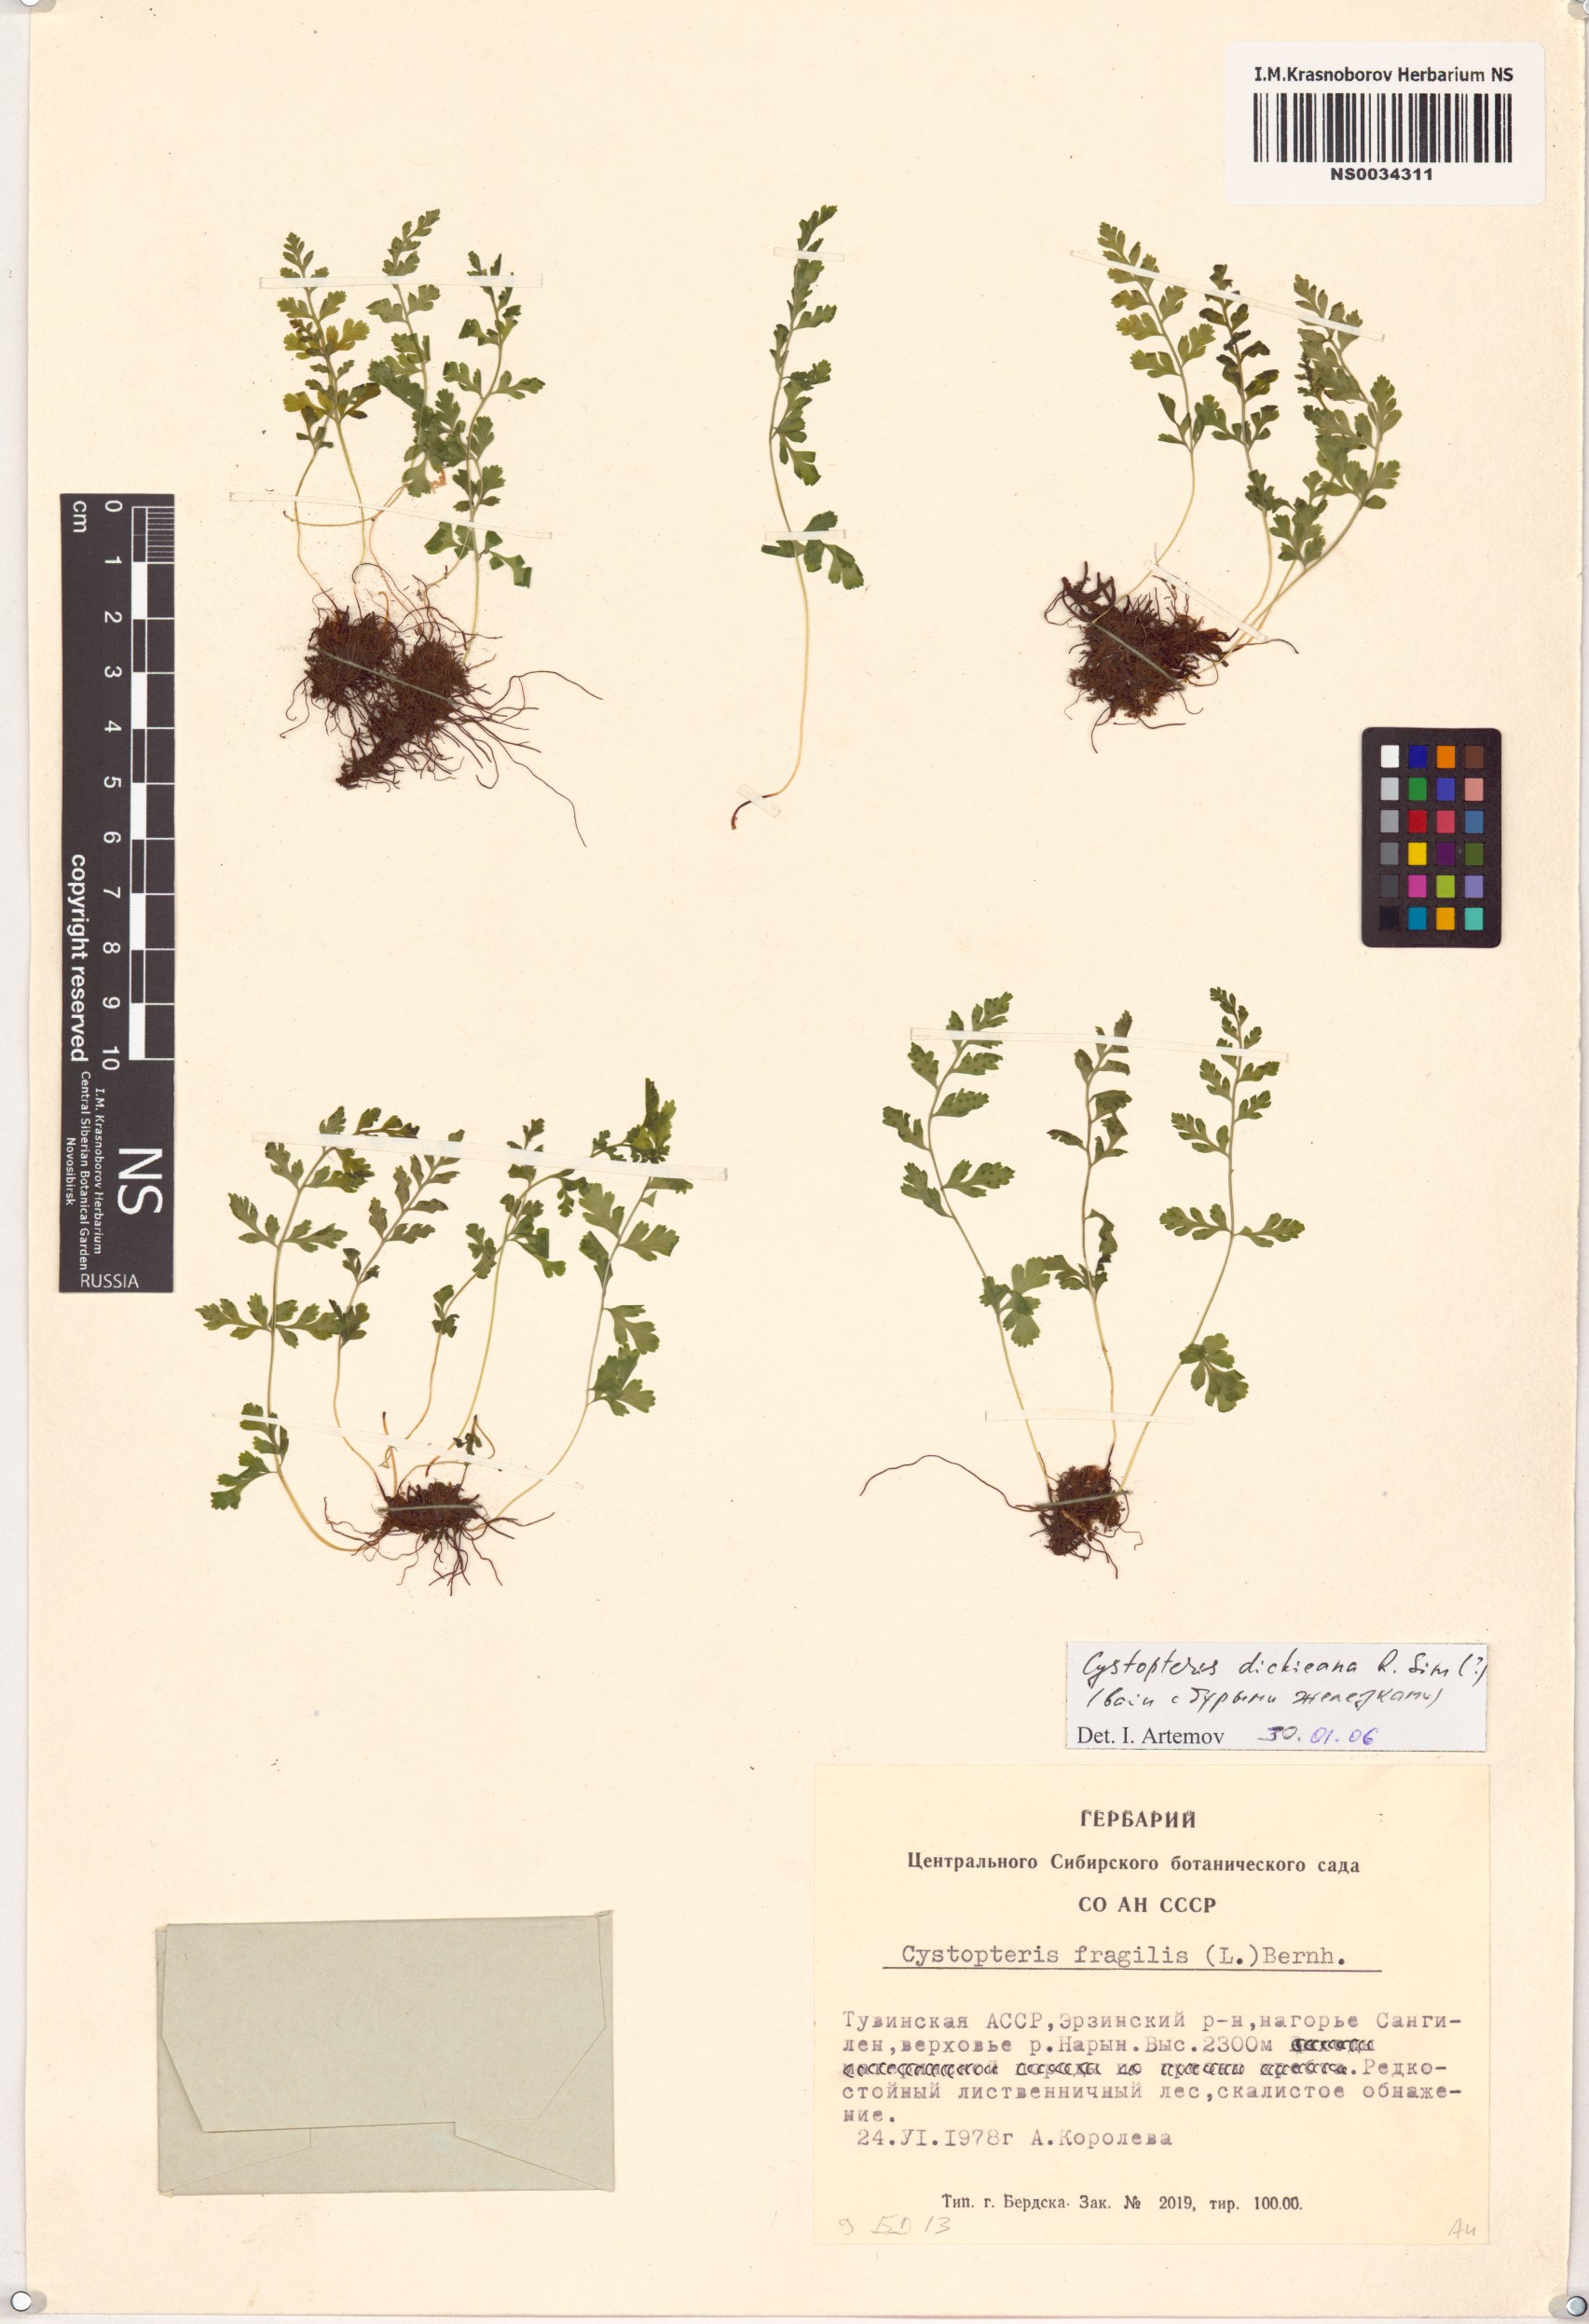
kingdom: Plantae
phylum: Tracheophyta
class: Polypodiopsida
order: Polypodiales
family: Cystopteridaceae
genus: Cystopteris
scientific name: Cystopteris dickieana
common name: Dickie's bladder-fern
